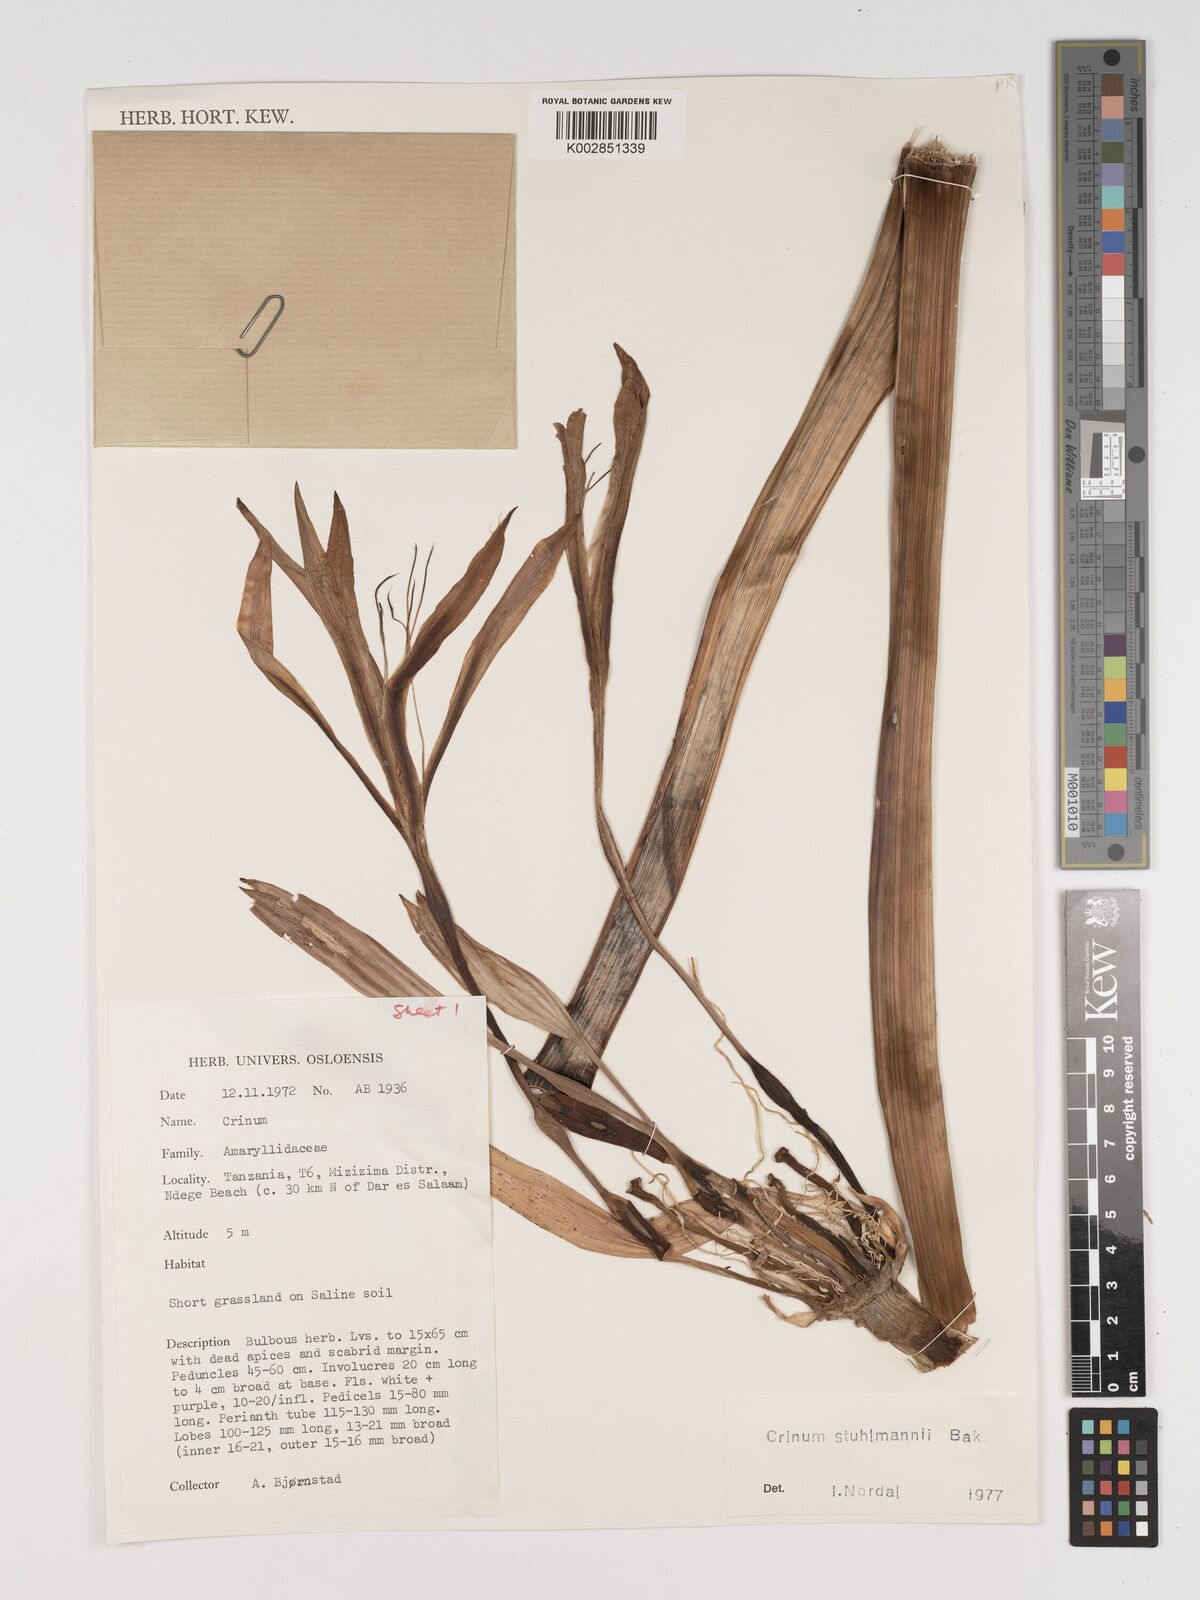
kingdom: Plantae
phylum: Tracheophyta
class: Liliopsida
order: Asparagales
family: Amaryllidaceae
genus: Crinum
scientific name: Crinum stuhlmannii
